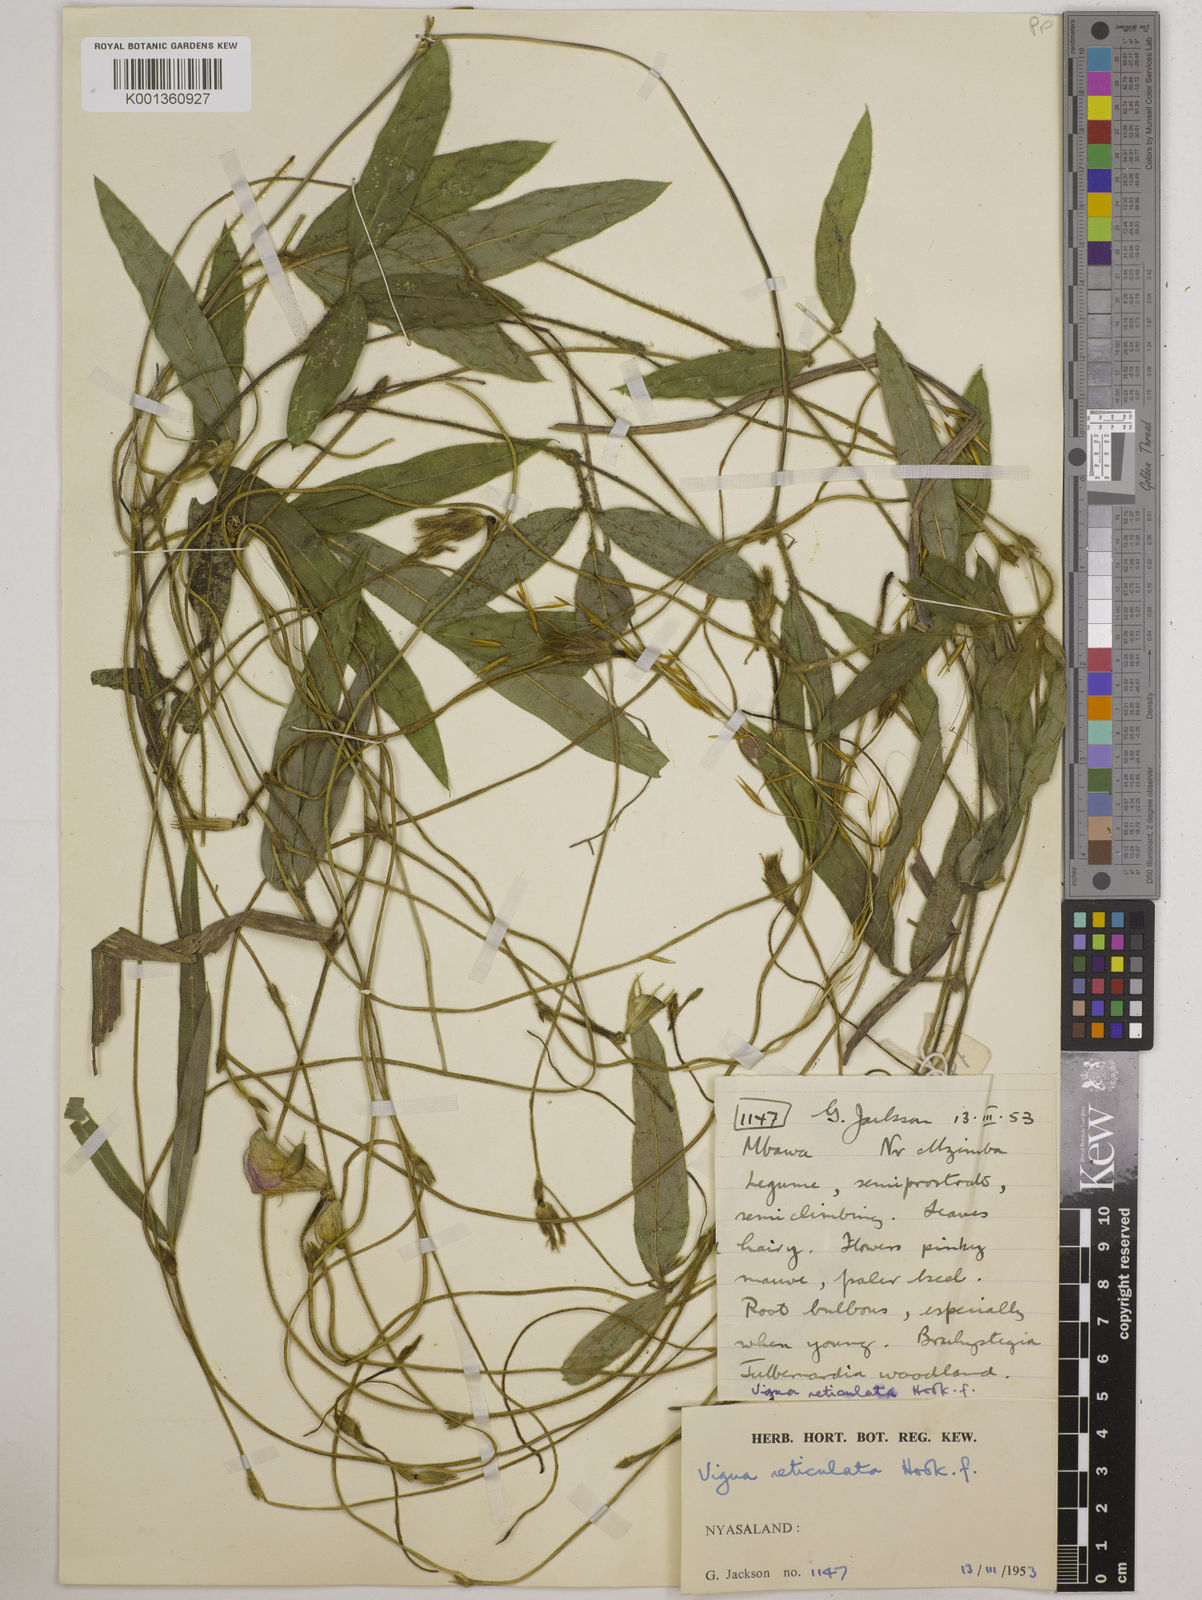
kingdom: Plantae
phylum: Tracheophyta
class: Magnoliopsida
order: Fabales
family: Fabaceae
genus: Vigna
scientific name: Vigna reticulata
